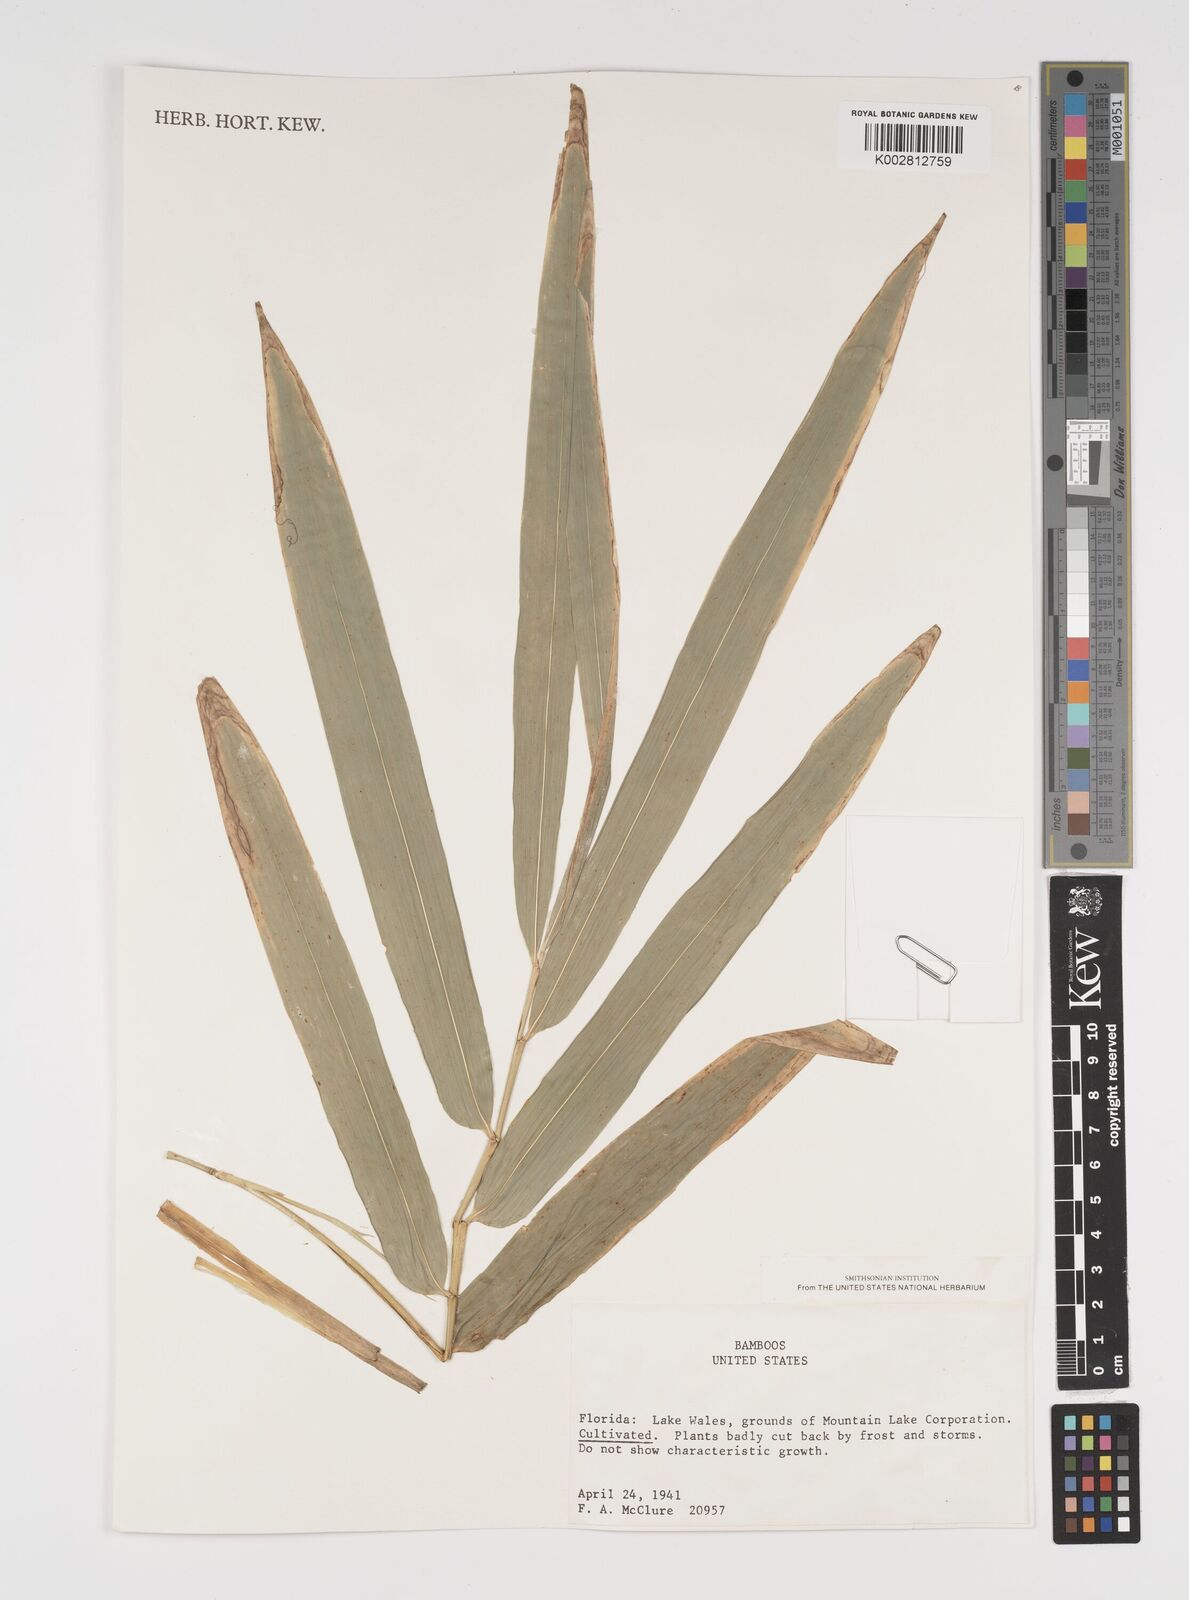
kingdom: Plantae
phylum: Tracheophyta
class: Liliopsida
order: Poales
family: Poaceae
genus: Arundinaria
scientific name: Arundinaria
